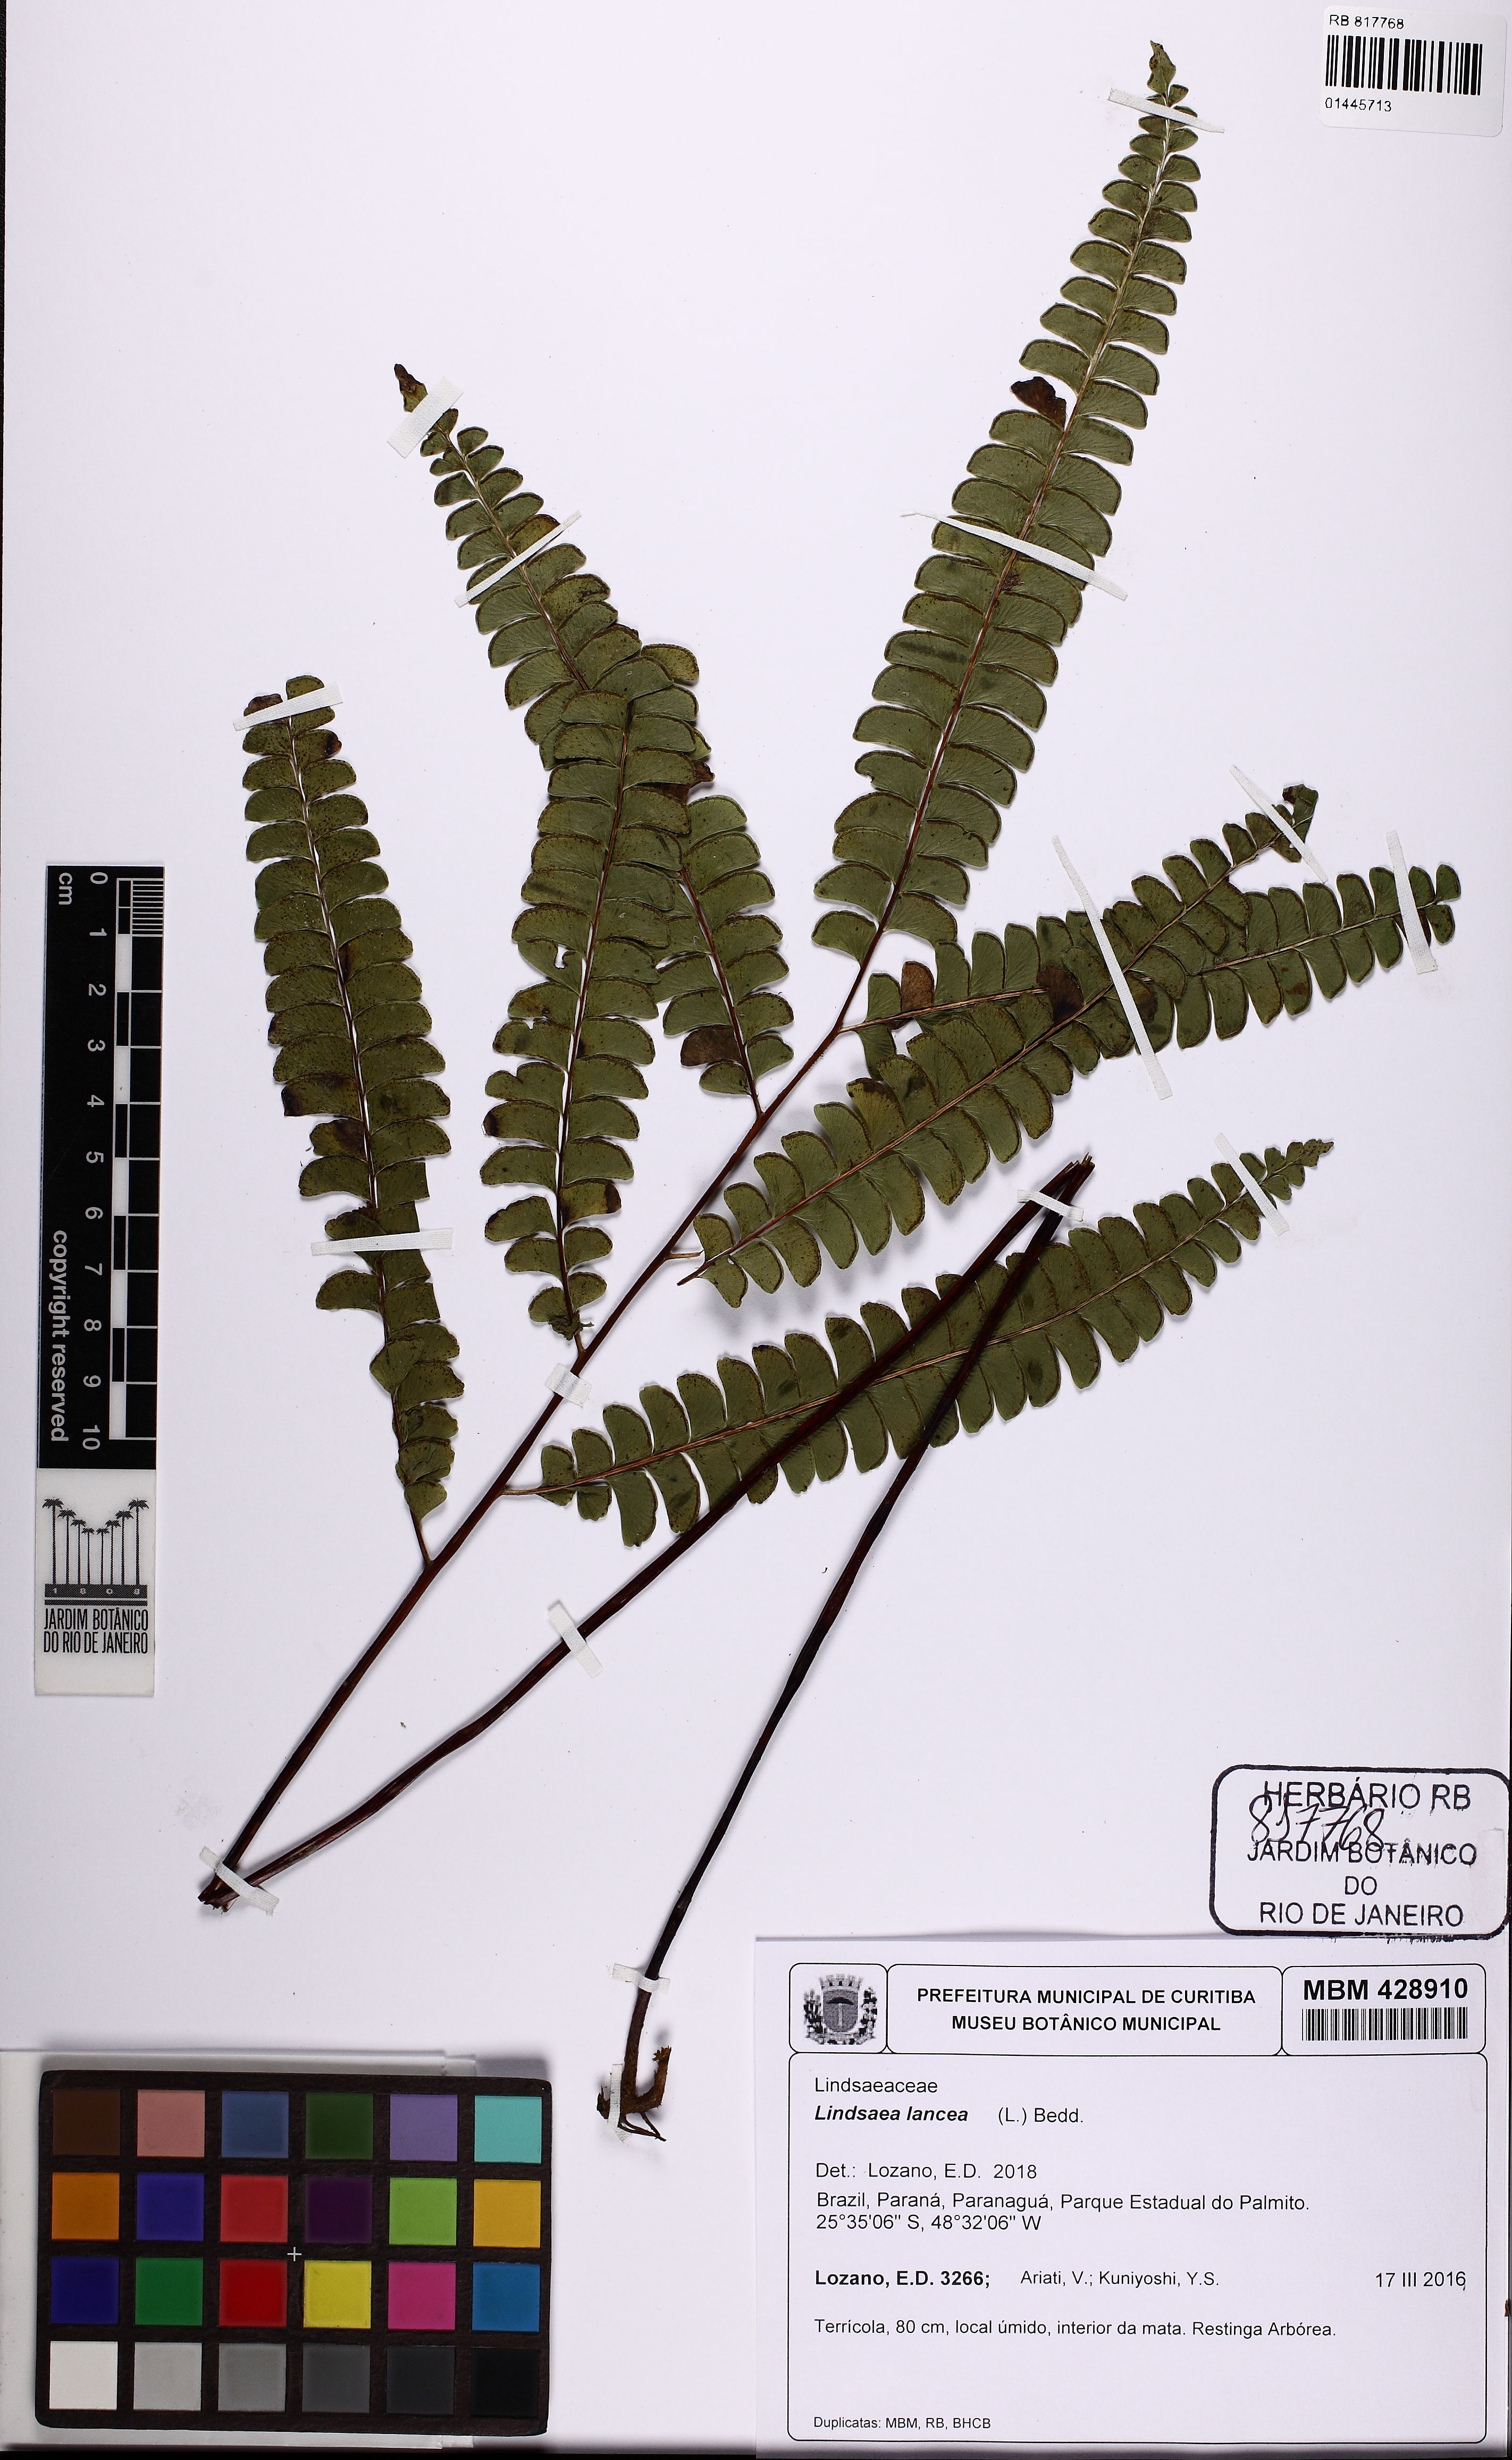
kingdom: Plantae
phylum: Tracheophyta
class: Polypodiopsida
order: Polypodiales
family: Lindsaeaceae
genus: Lindsaea
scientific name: Lindsaea lancea
